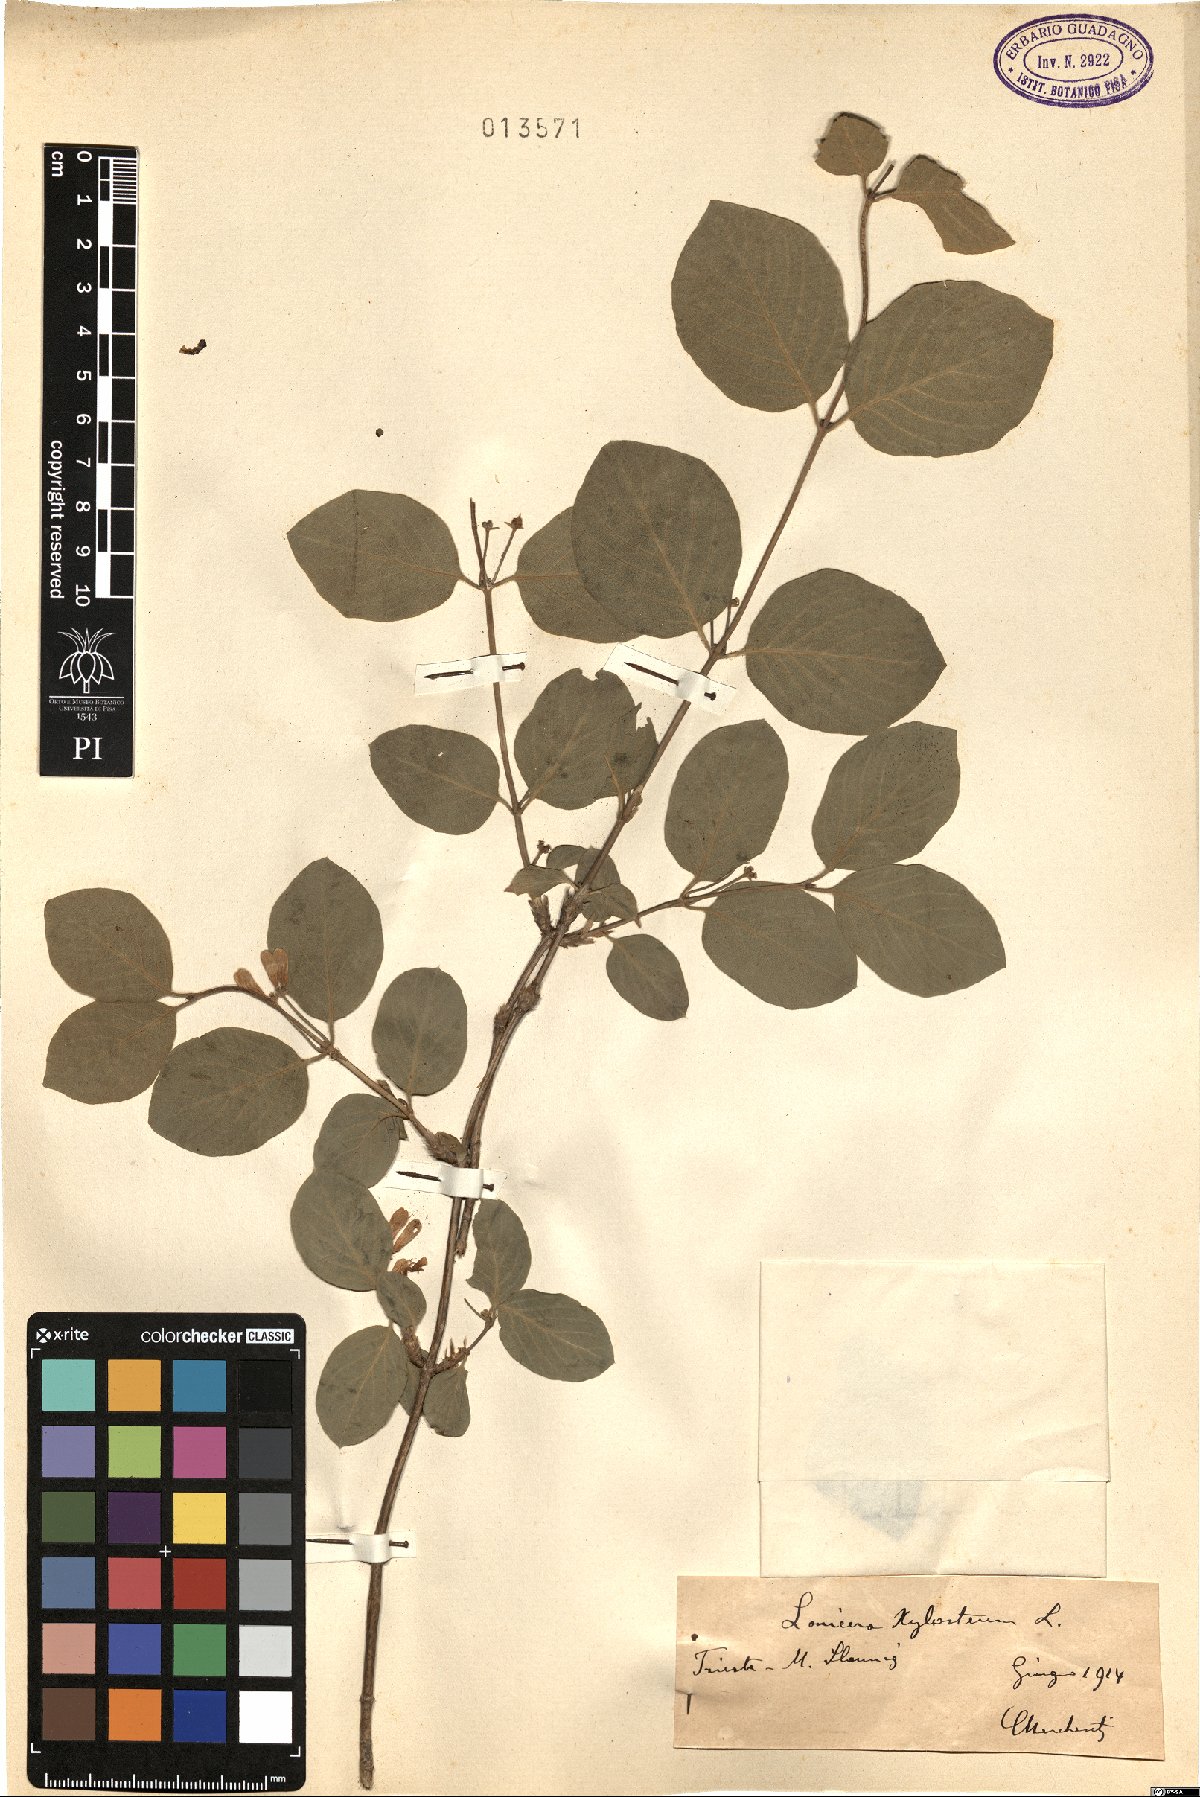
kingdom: Plantae
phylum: Tracheophyta
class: Magnoliopsida
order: Dipsacales
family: Caprifoliaceae
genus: Lonicera
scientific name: Lonicera xylosteum
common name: Fly honeysuckle
